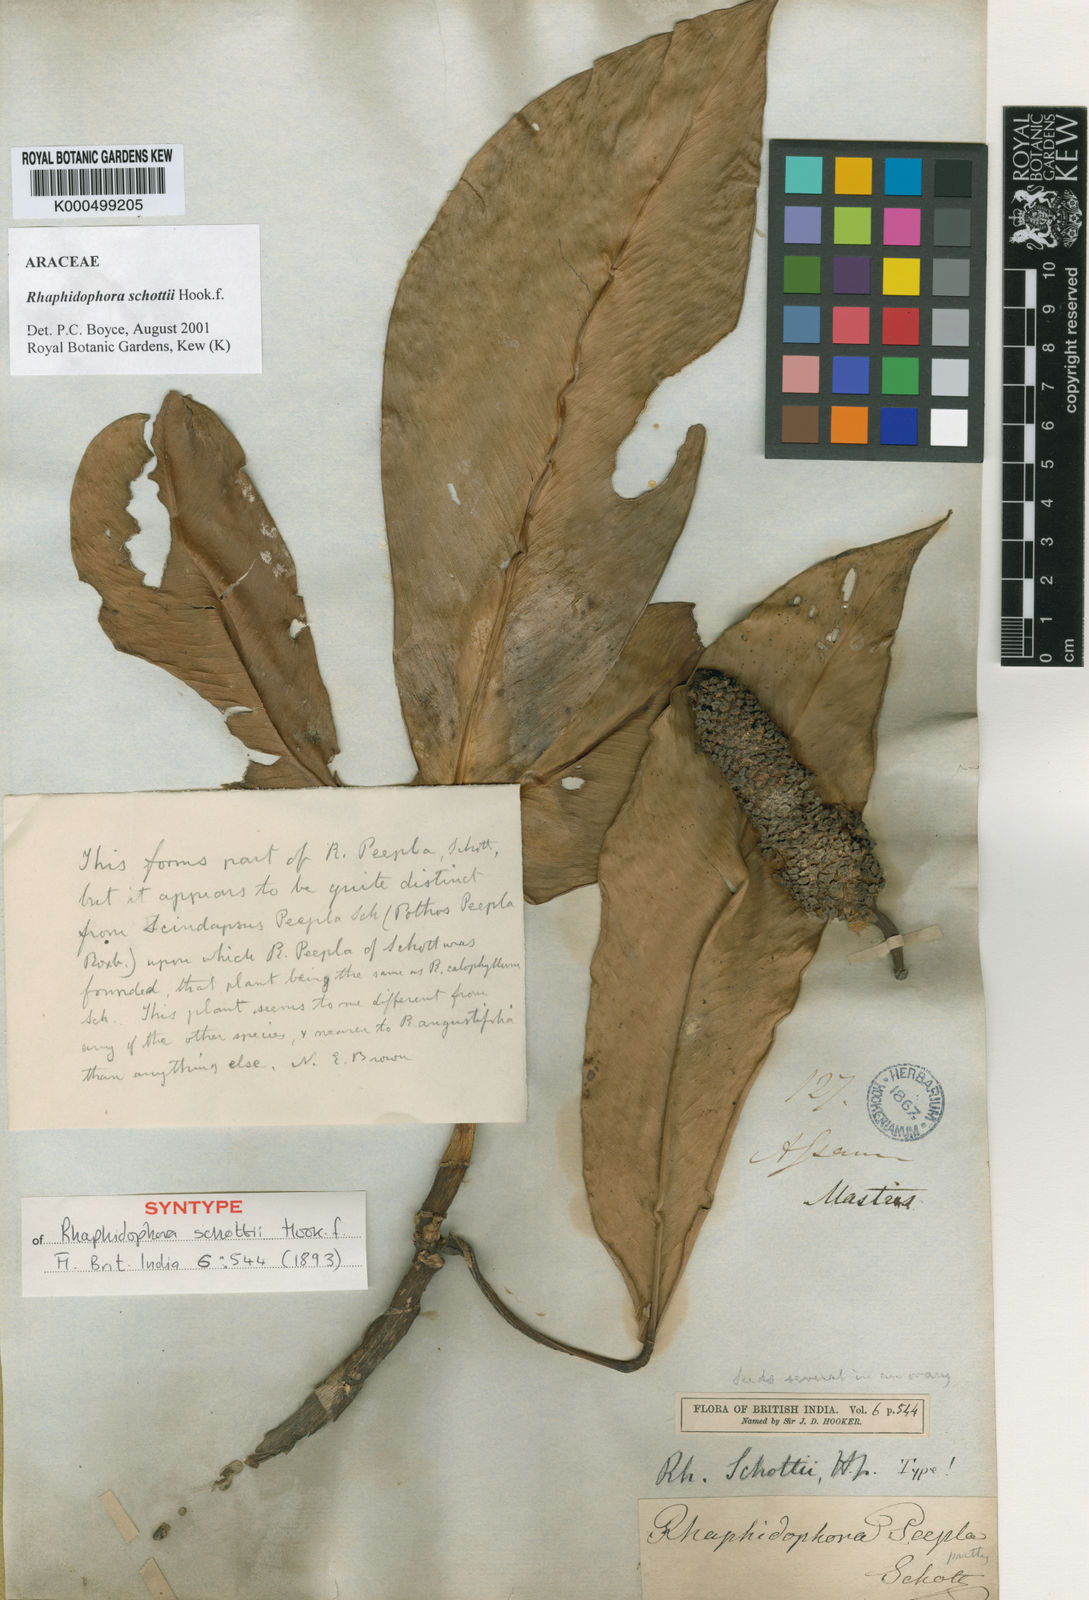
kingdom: Plantae
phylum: Tracheophyta
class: Liliopsida
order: Alismatales
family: Araceae
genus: Rhaphidophora
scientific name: Rhaphidophora
